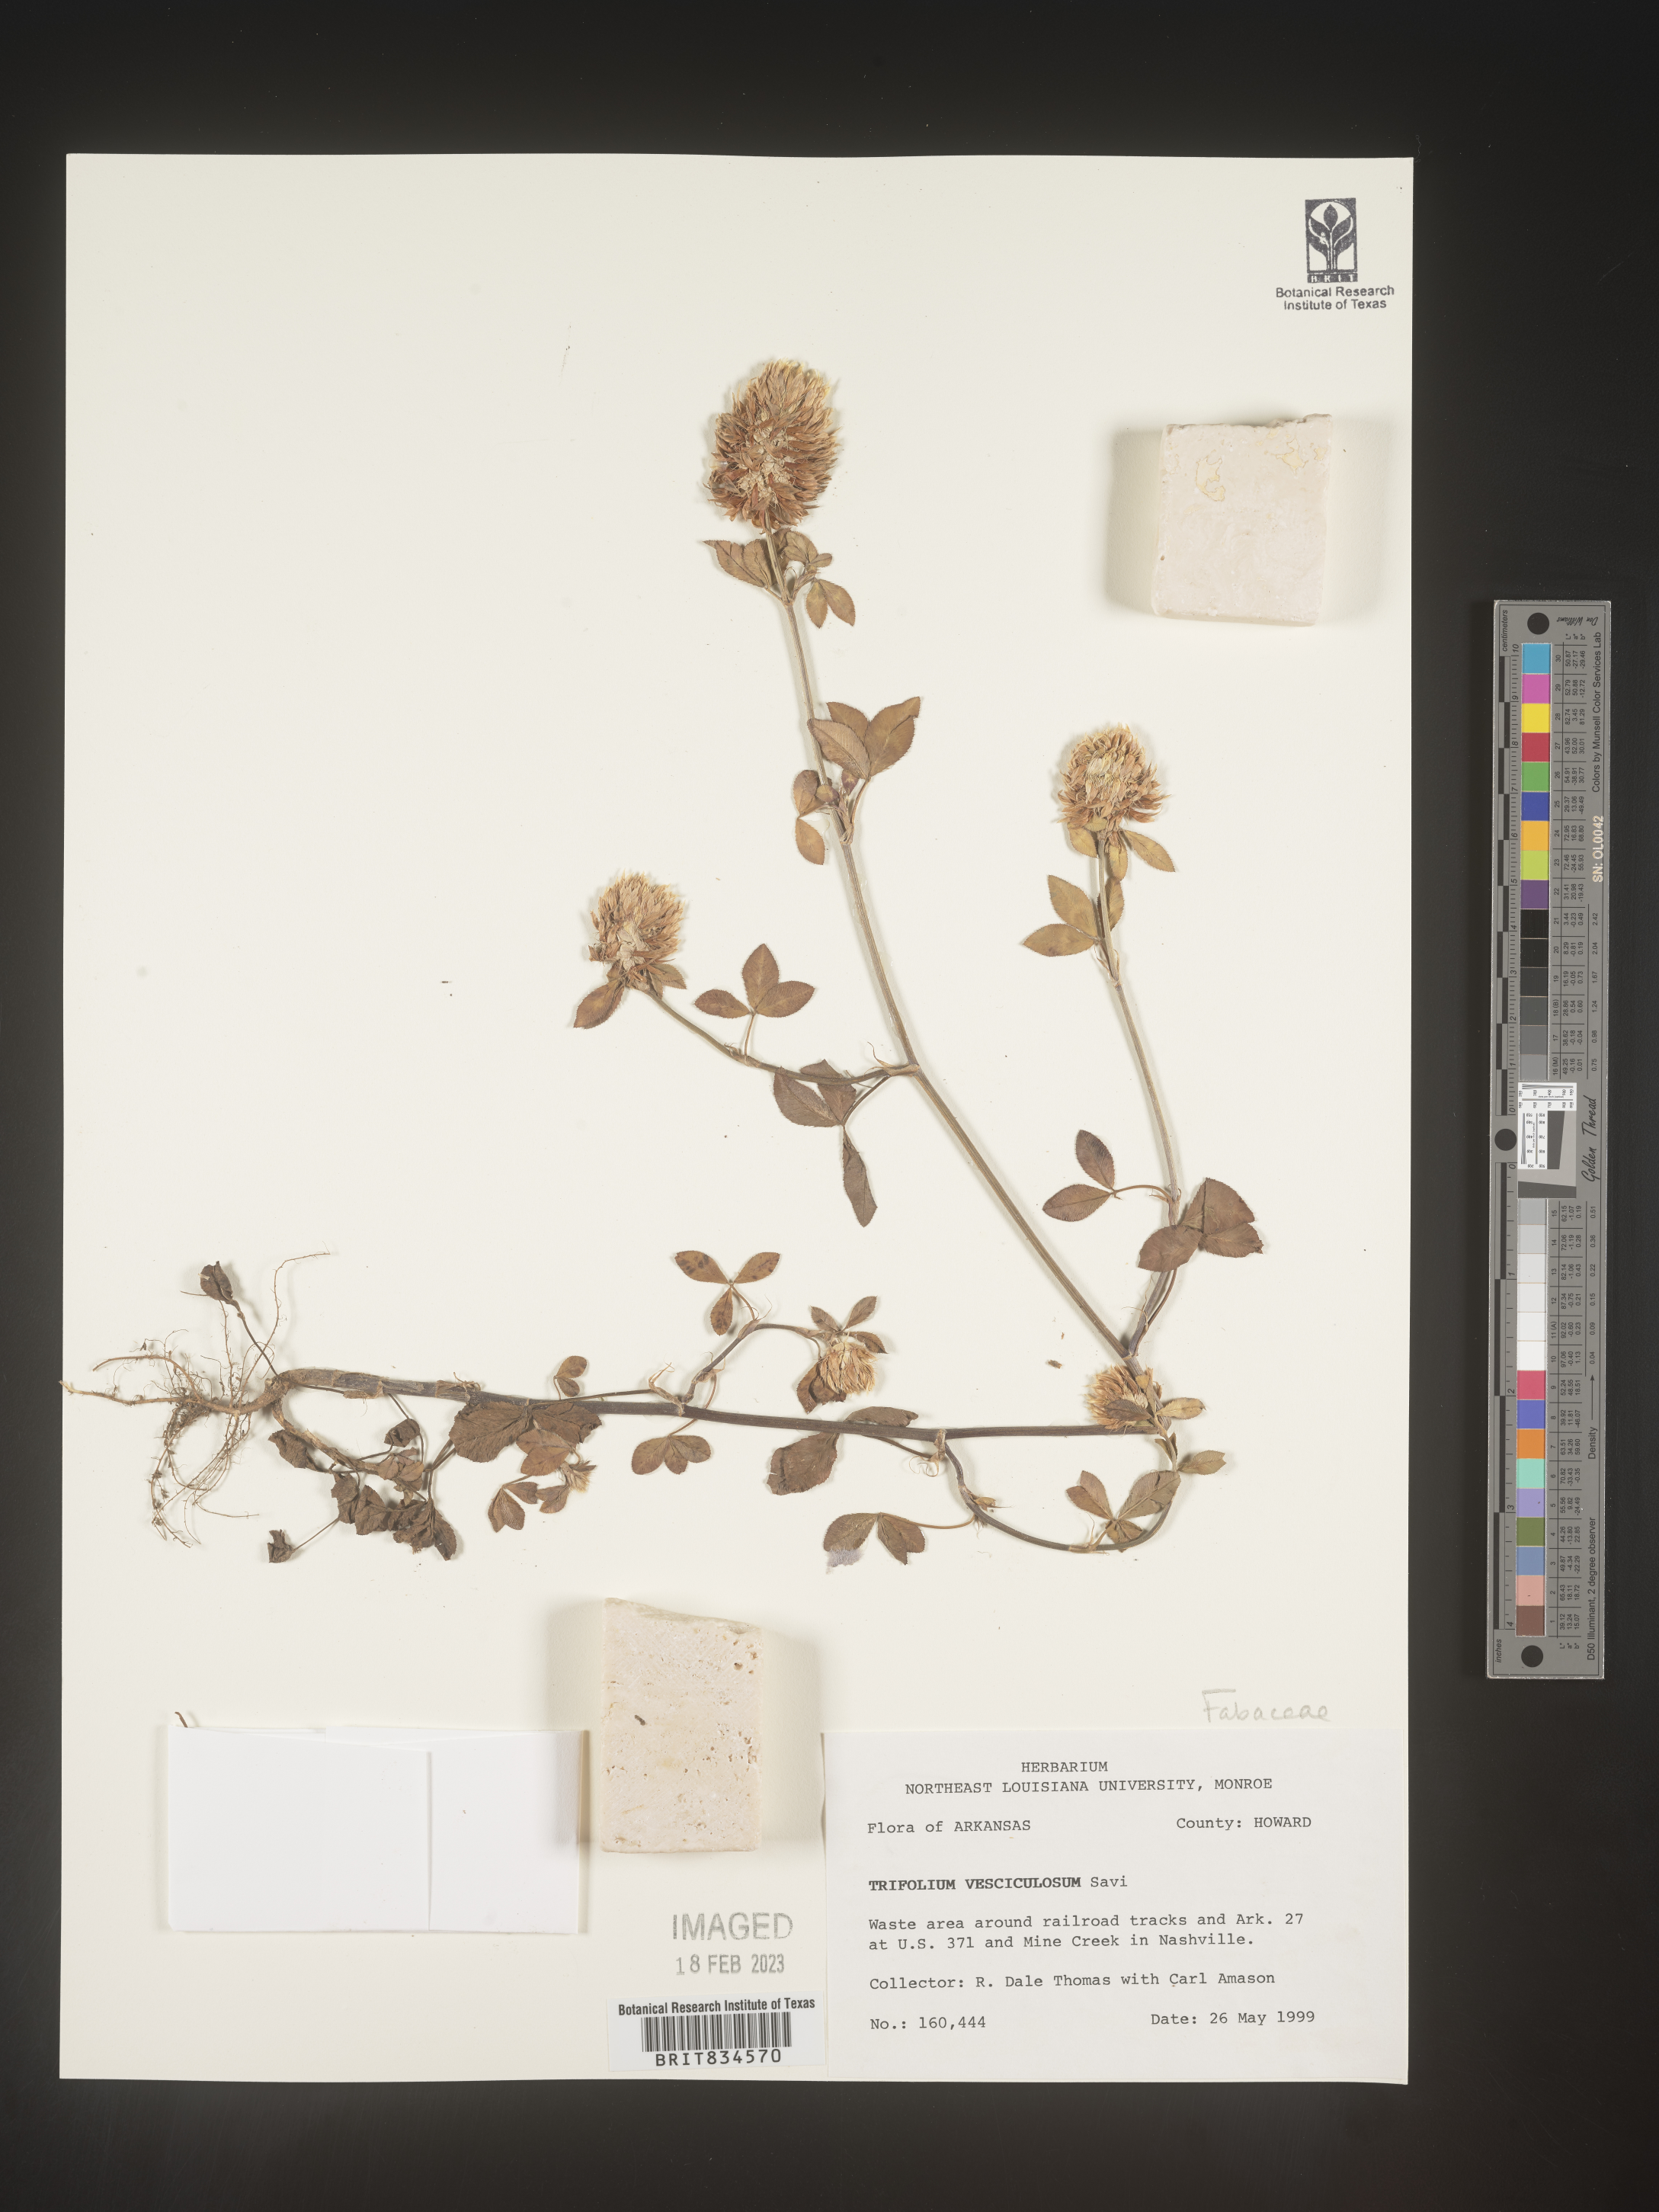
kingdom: Plantae
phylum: Tracheophyta
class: Magnoliopsida
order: Fabales
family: Fabaceae
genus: Trifolium
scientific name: Trifolium
